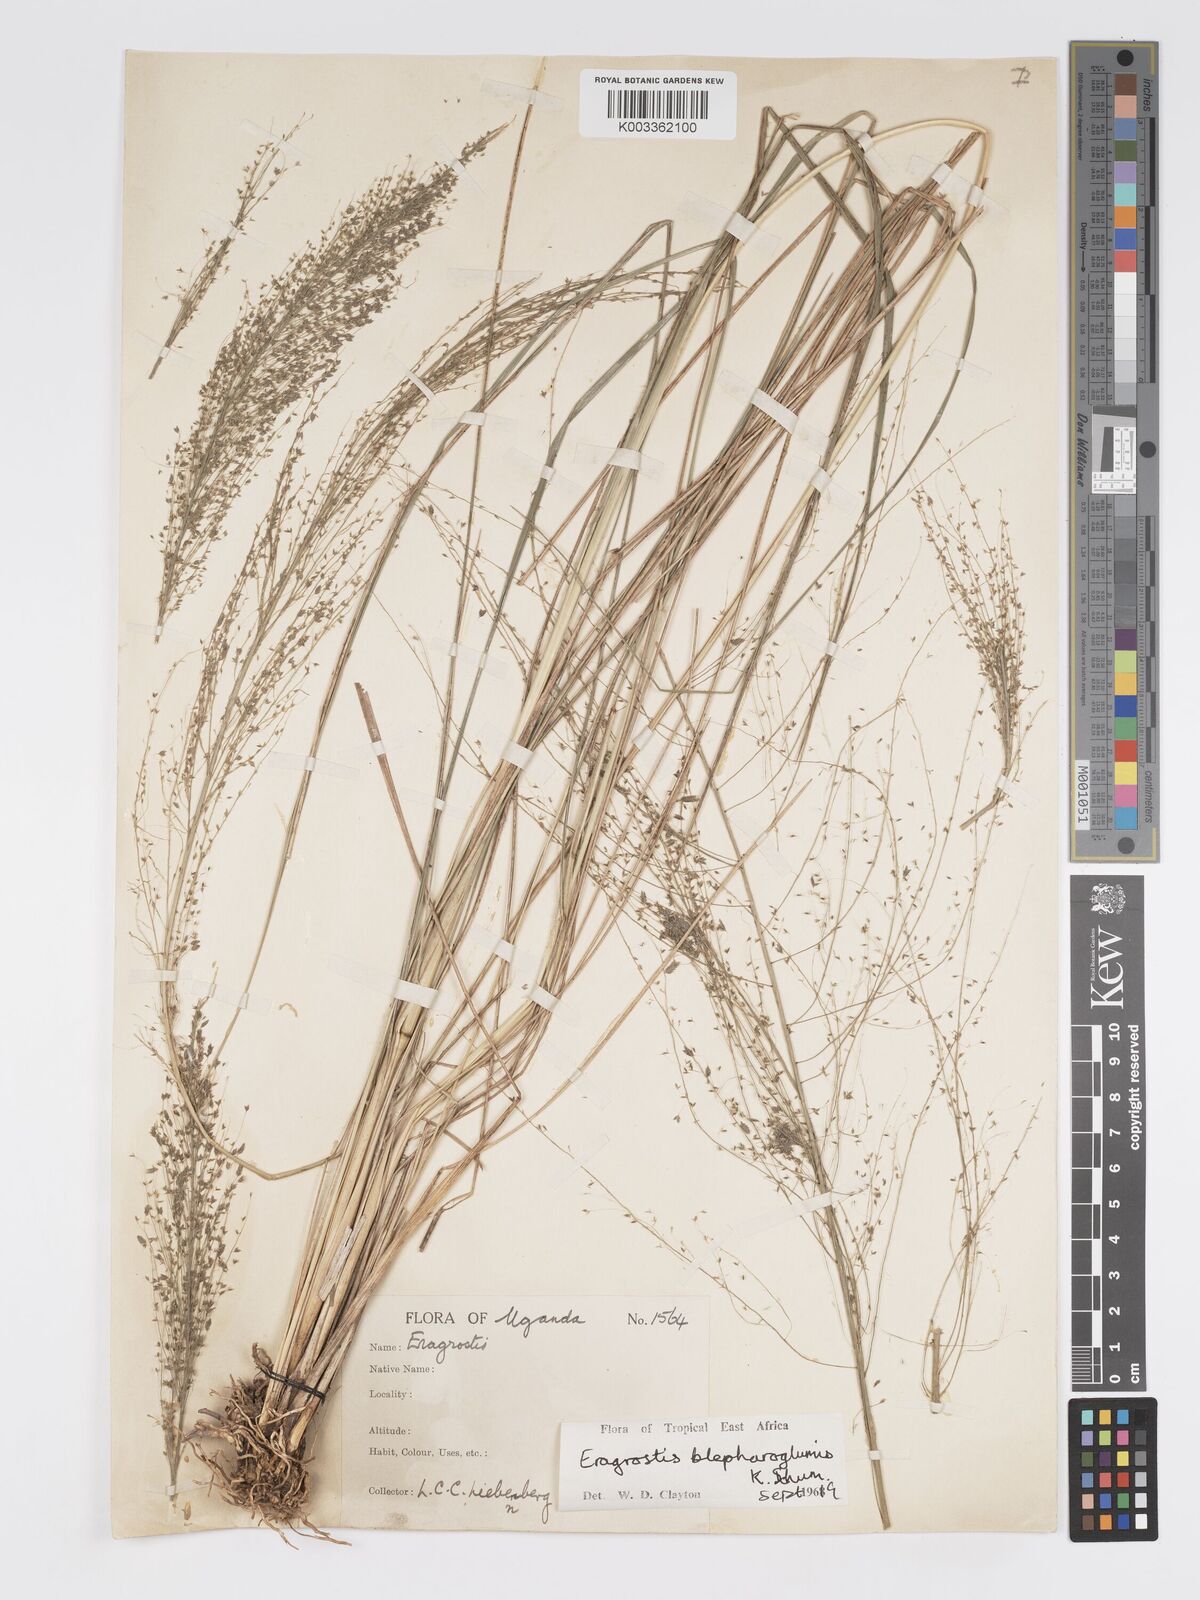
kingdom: Plantae
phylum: Tracheophyta
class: Liliopsida
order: Poales
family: Poaceae
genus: Eragrostis
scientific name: Eragrostis olivacea
